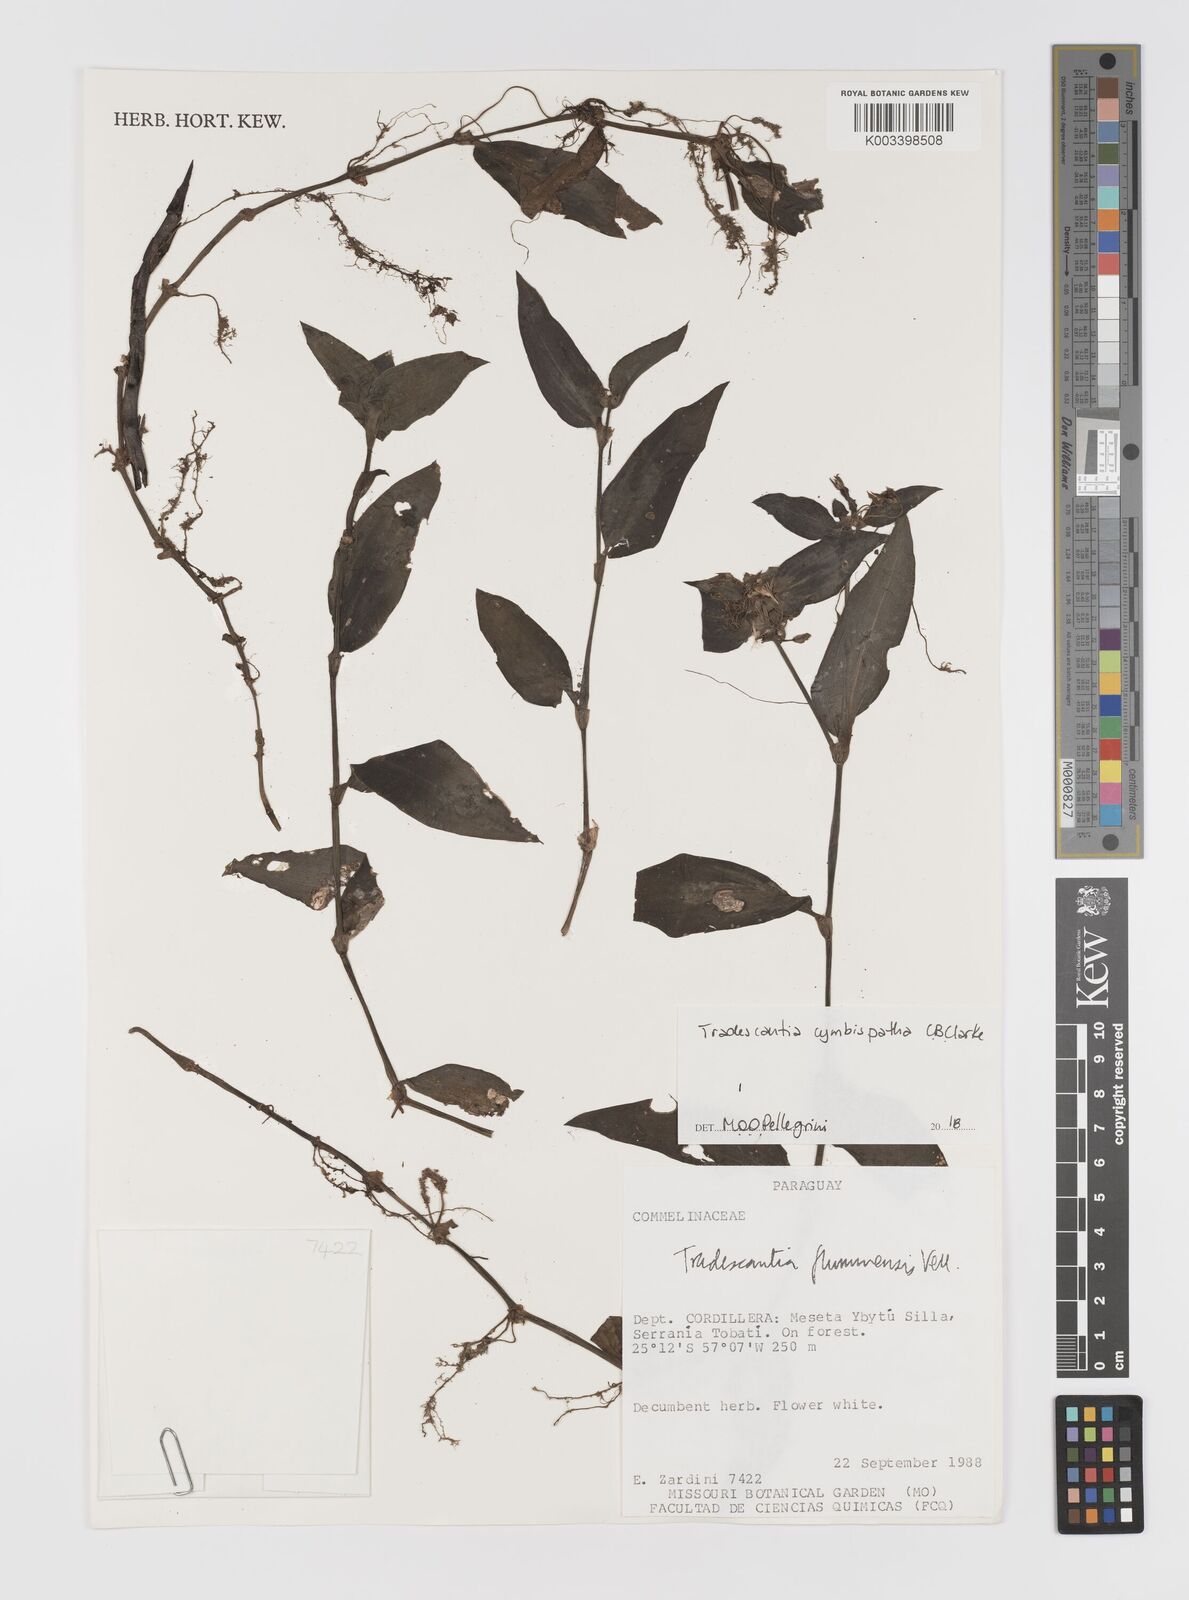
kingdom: Plantae
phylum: Tracheophyta
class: Liliopsida
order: Commelinales
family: Commelinaceae
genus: Tradescantia
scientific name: Tradescantia cymbispatha
